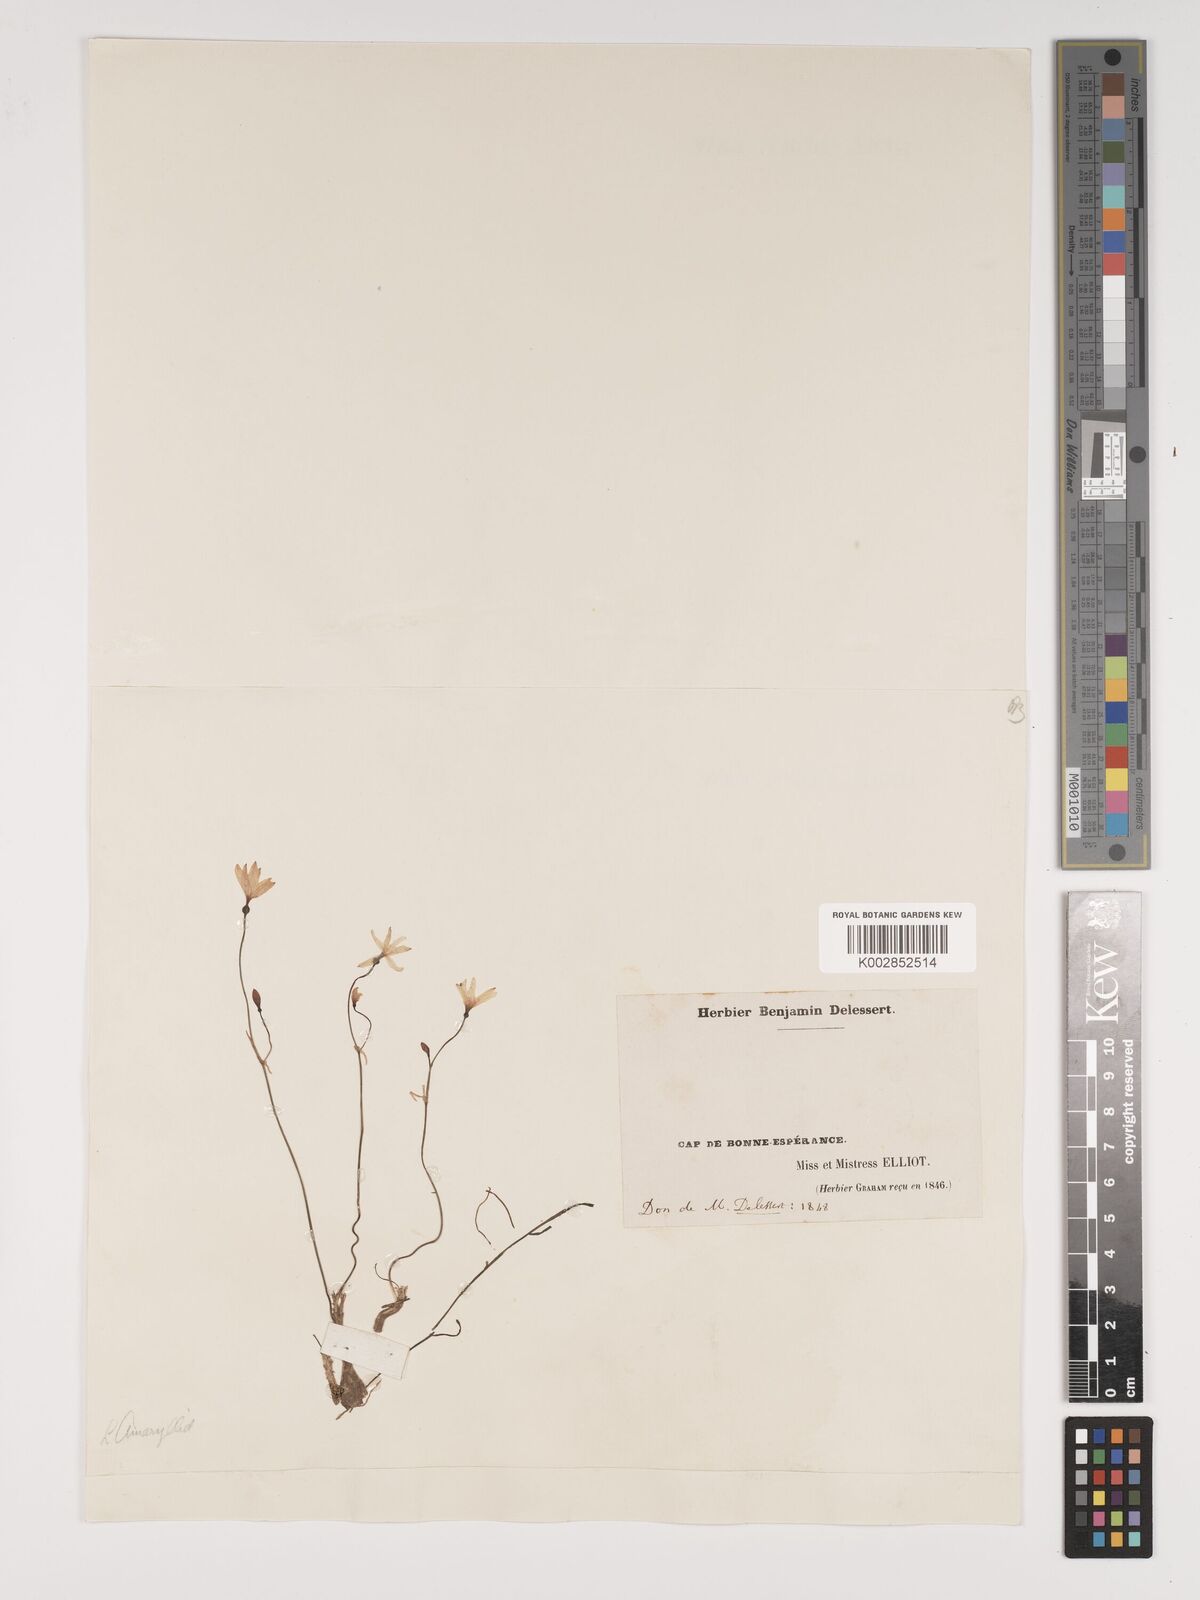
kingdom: Plantae
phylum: Tracheophyta
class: Liliopsida
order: Asparagales
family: Amaryllidaceae
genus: Strumaria
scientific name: Strumaria spiralis
